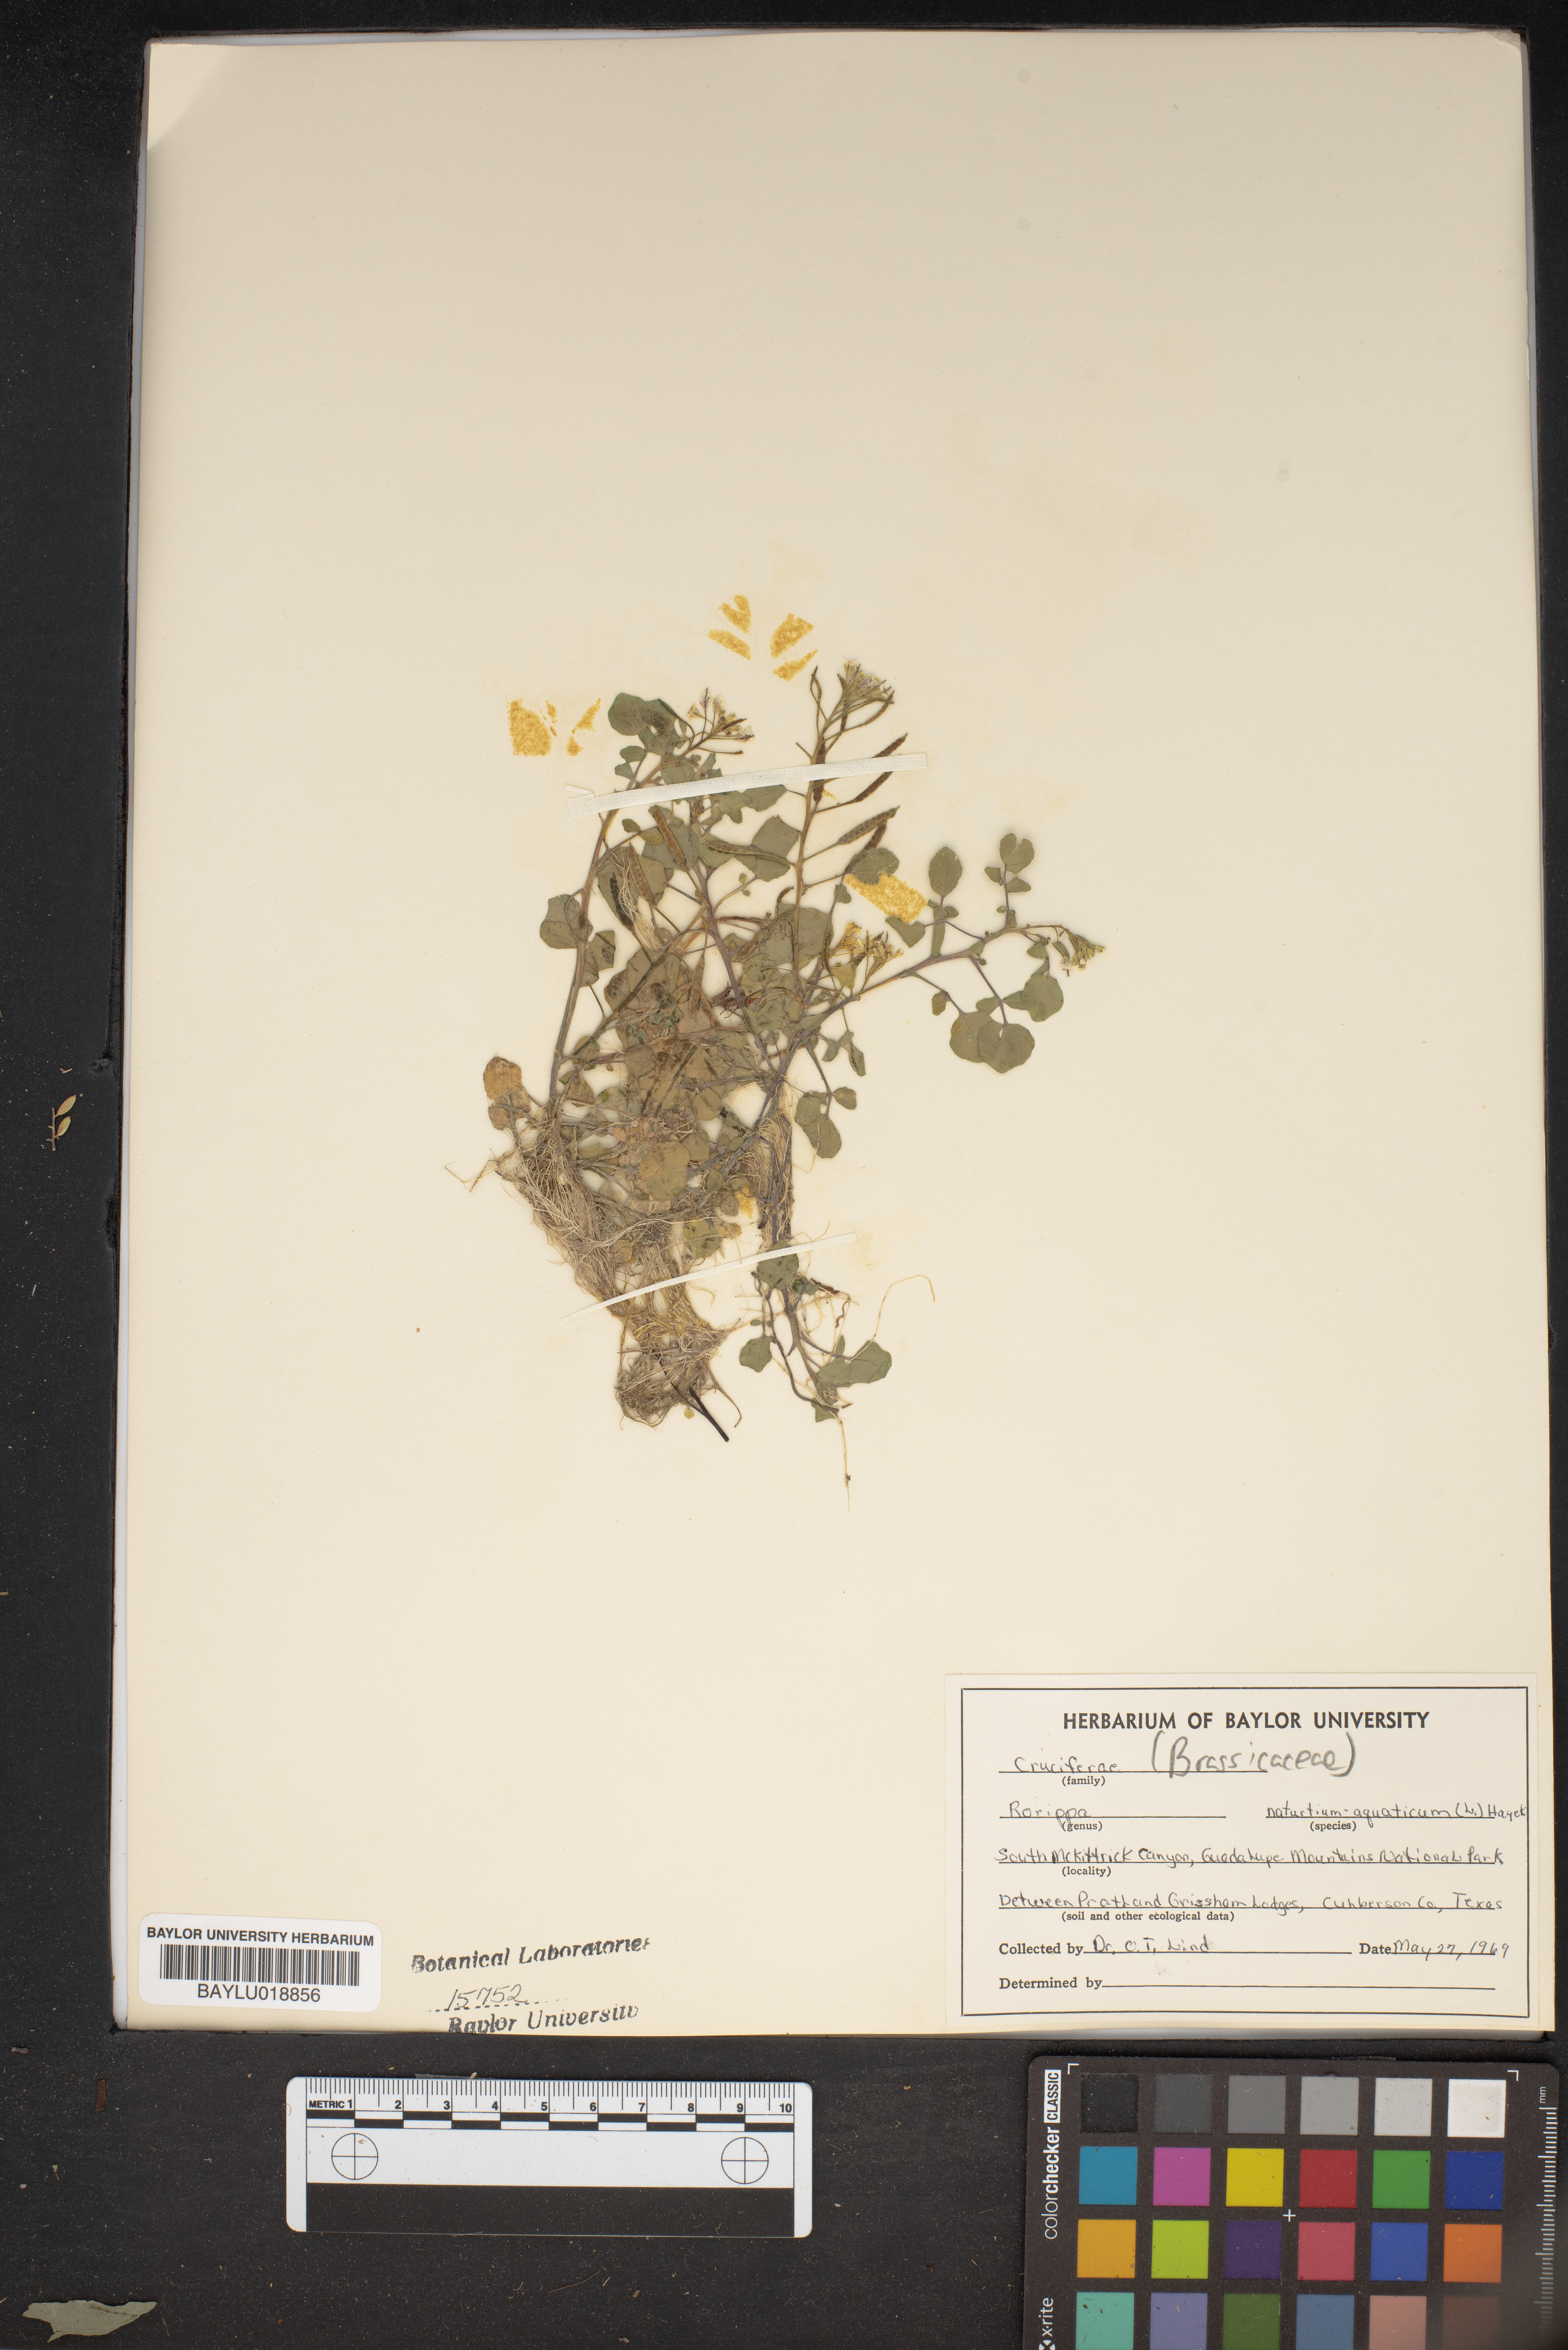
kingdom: Plantae
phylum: Tracheophyta
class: Magnoliopsida
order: Brassicales
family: Brassicaceae
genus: Nasturtium
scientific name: Nasturtium officinale
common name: Watercress
